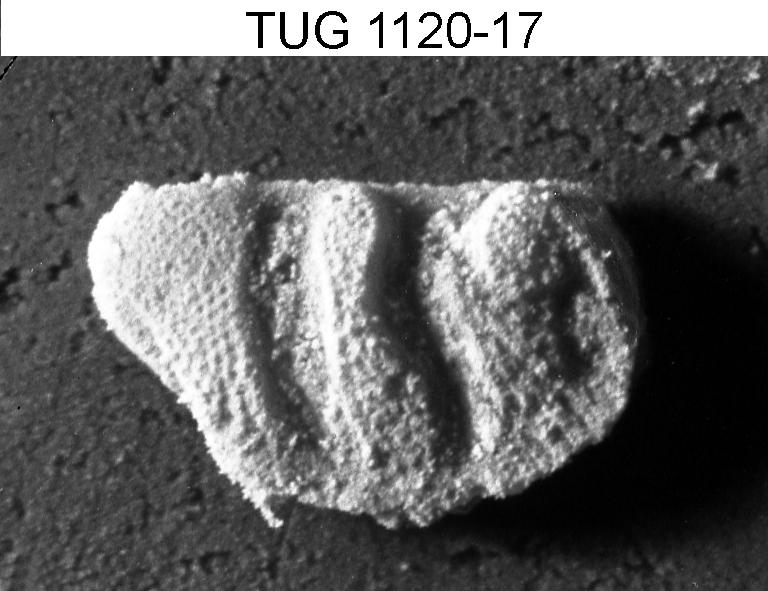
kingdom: Animalia
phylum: Arthropoda
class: Ostracoda
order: Palaeocopida
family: Quadrijugatoridae
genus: Ceratopsis
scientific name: Ceratopsis
